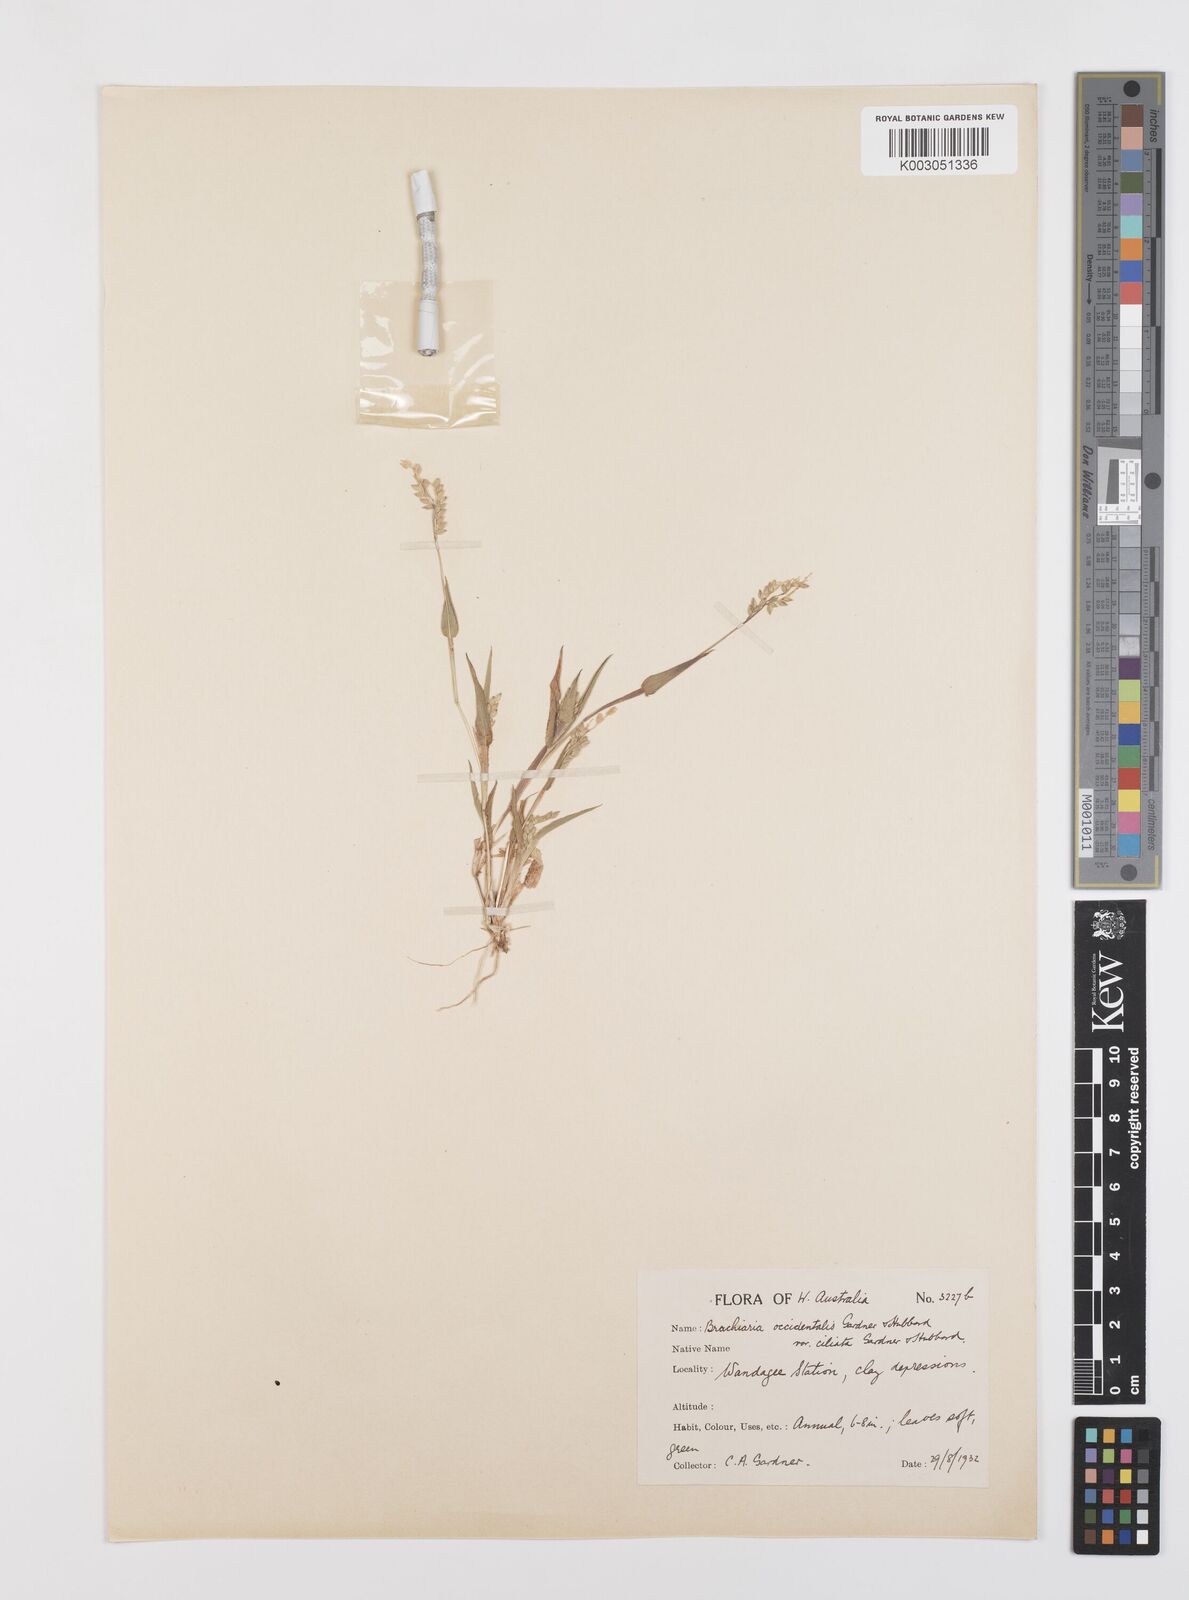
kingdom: Plantae
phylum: Tracheophyta
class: Liliopsida
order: Poales
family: Poaceae
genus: Urochloa
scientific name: Urochloa occidentalis
